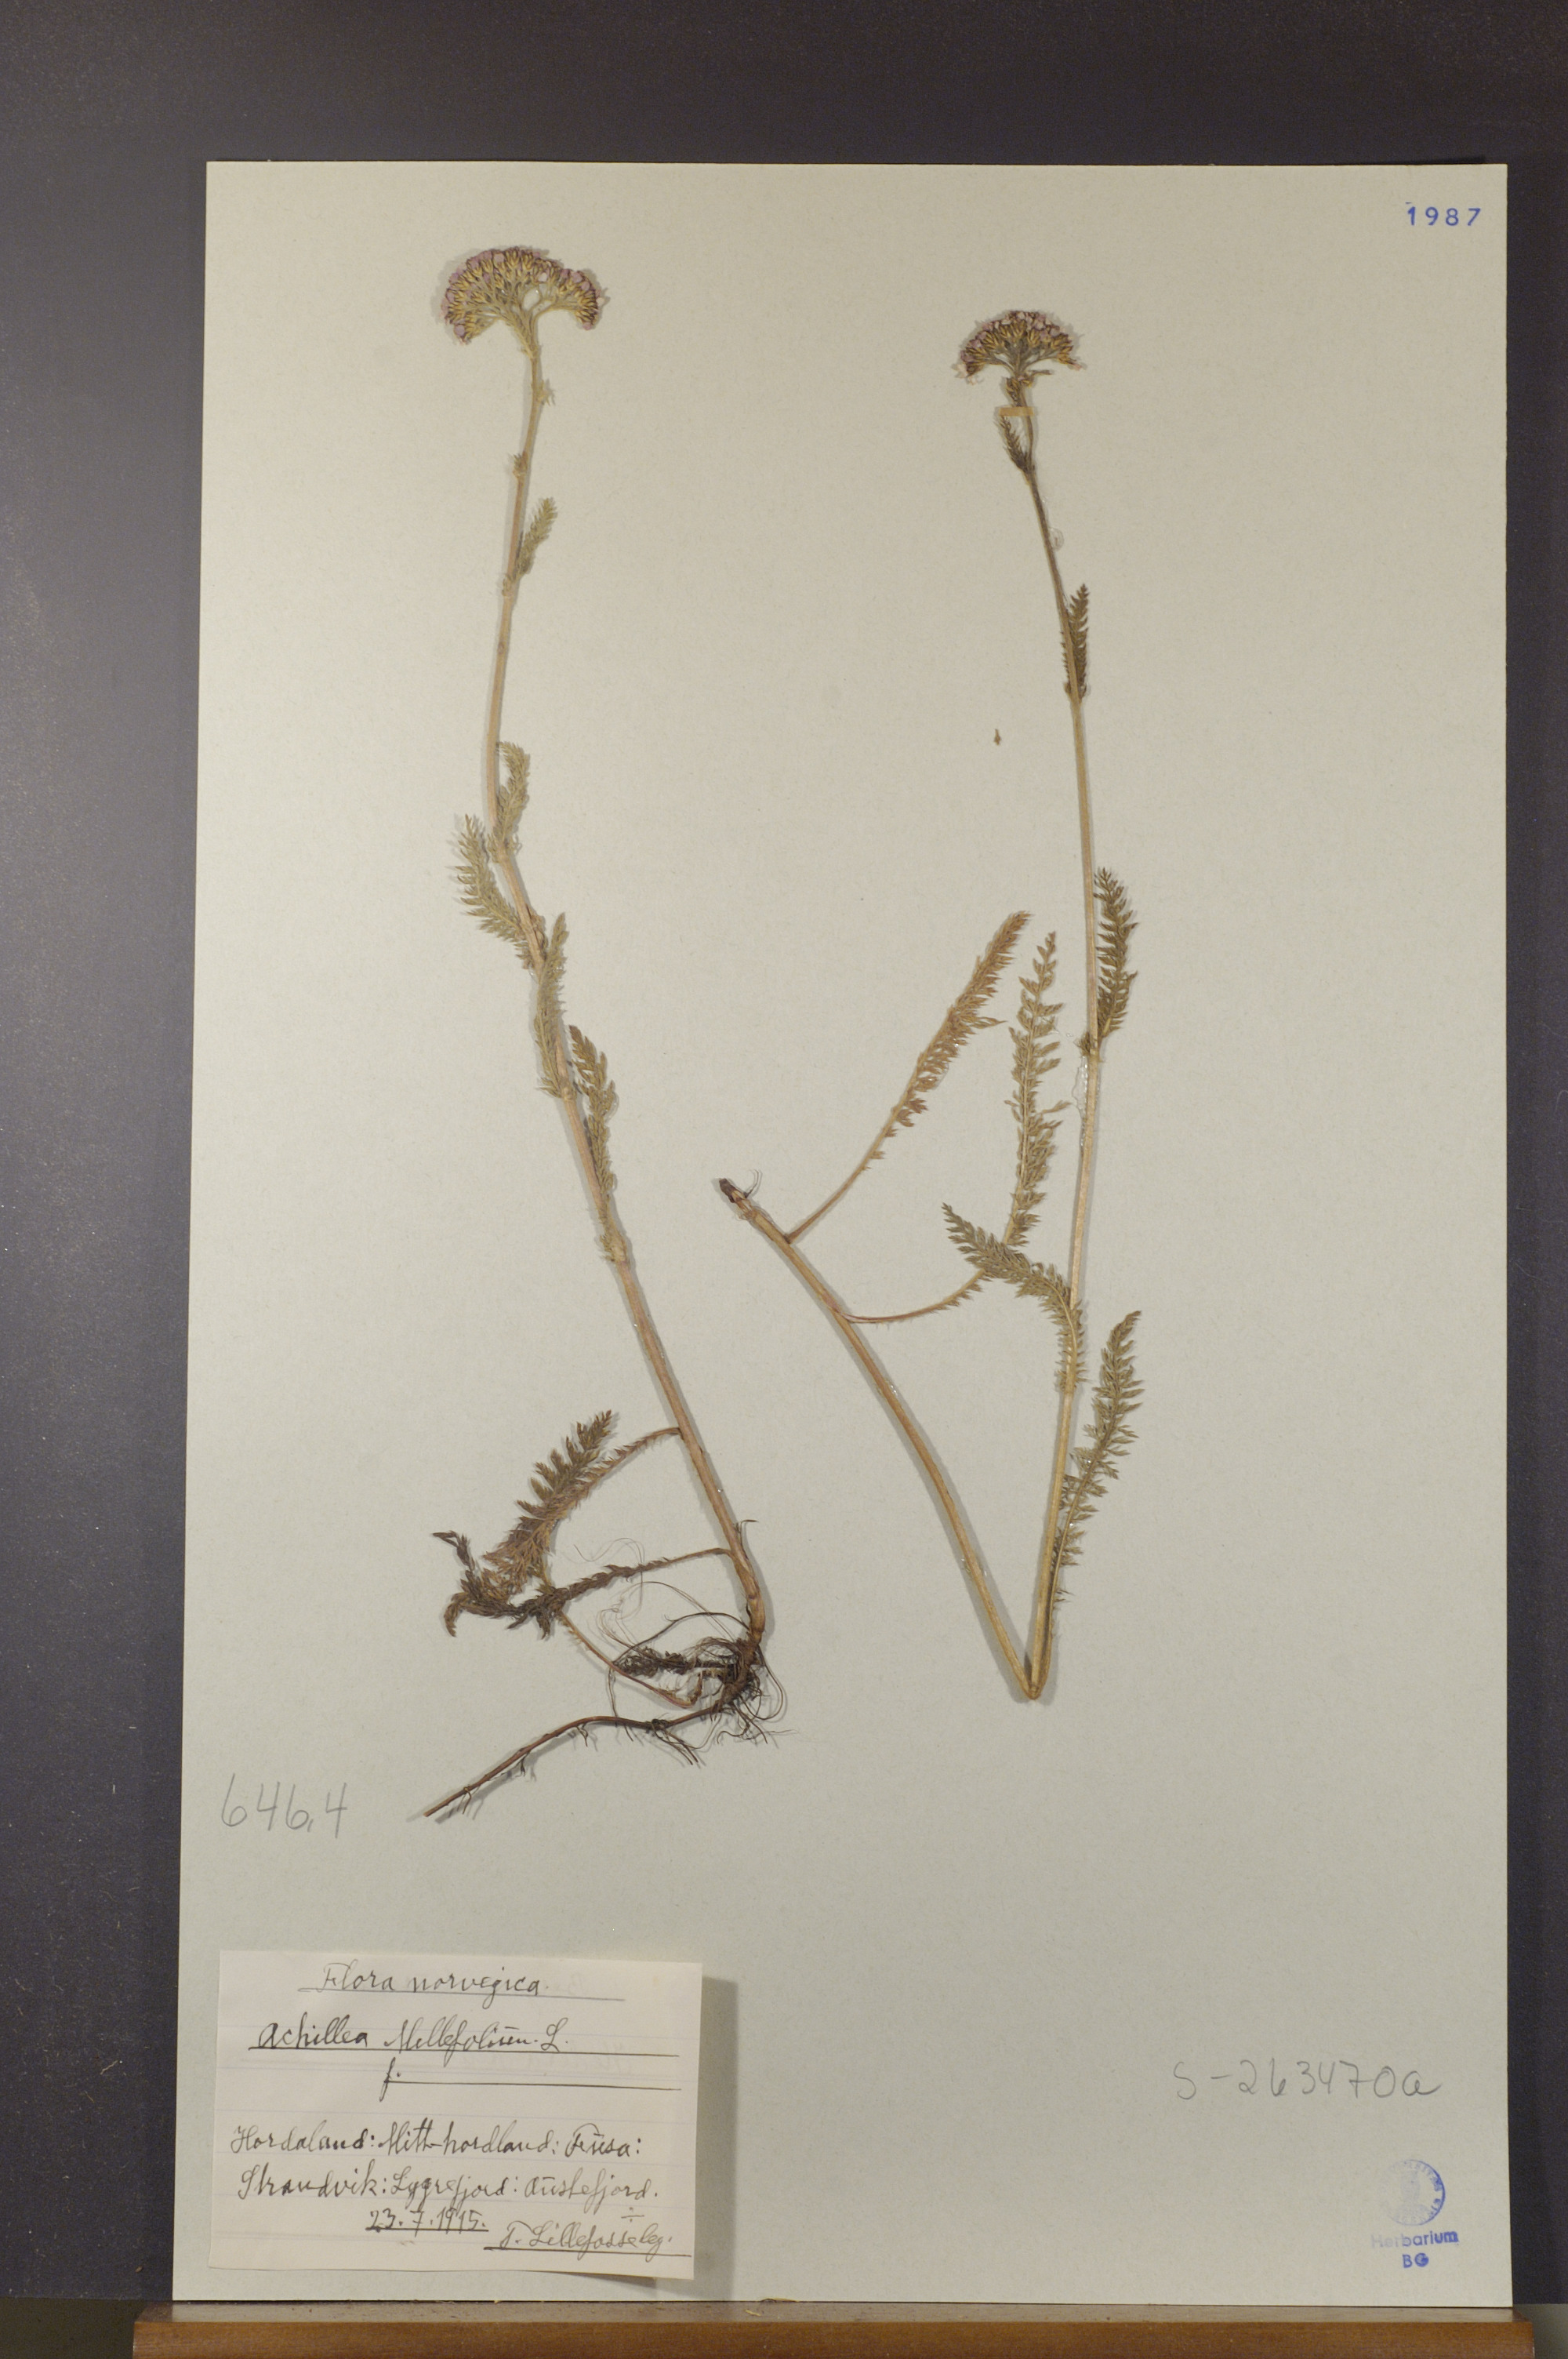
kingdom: Plantae
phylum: Tracheophyta
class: Magnoliopsida
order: Asterales
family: Asteraceae
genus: Achillea
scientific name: Achillea millefolium
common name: Yarrow
